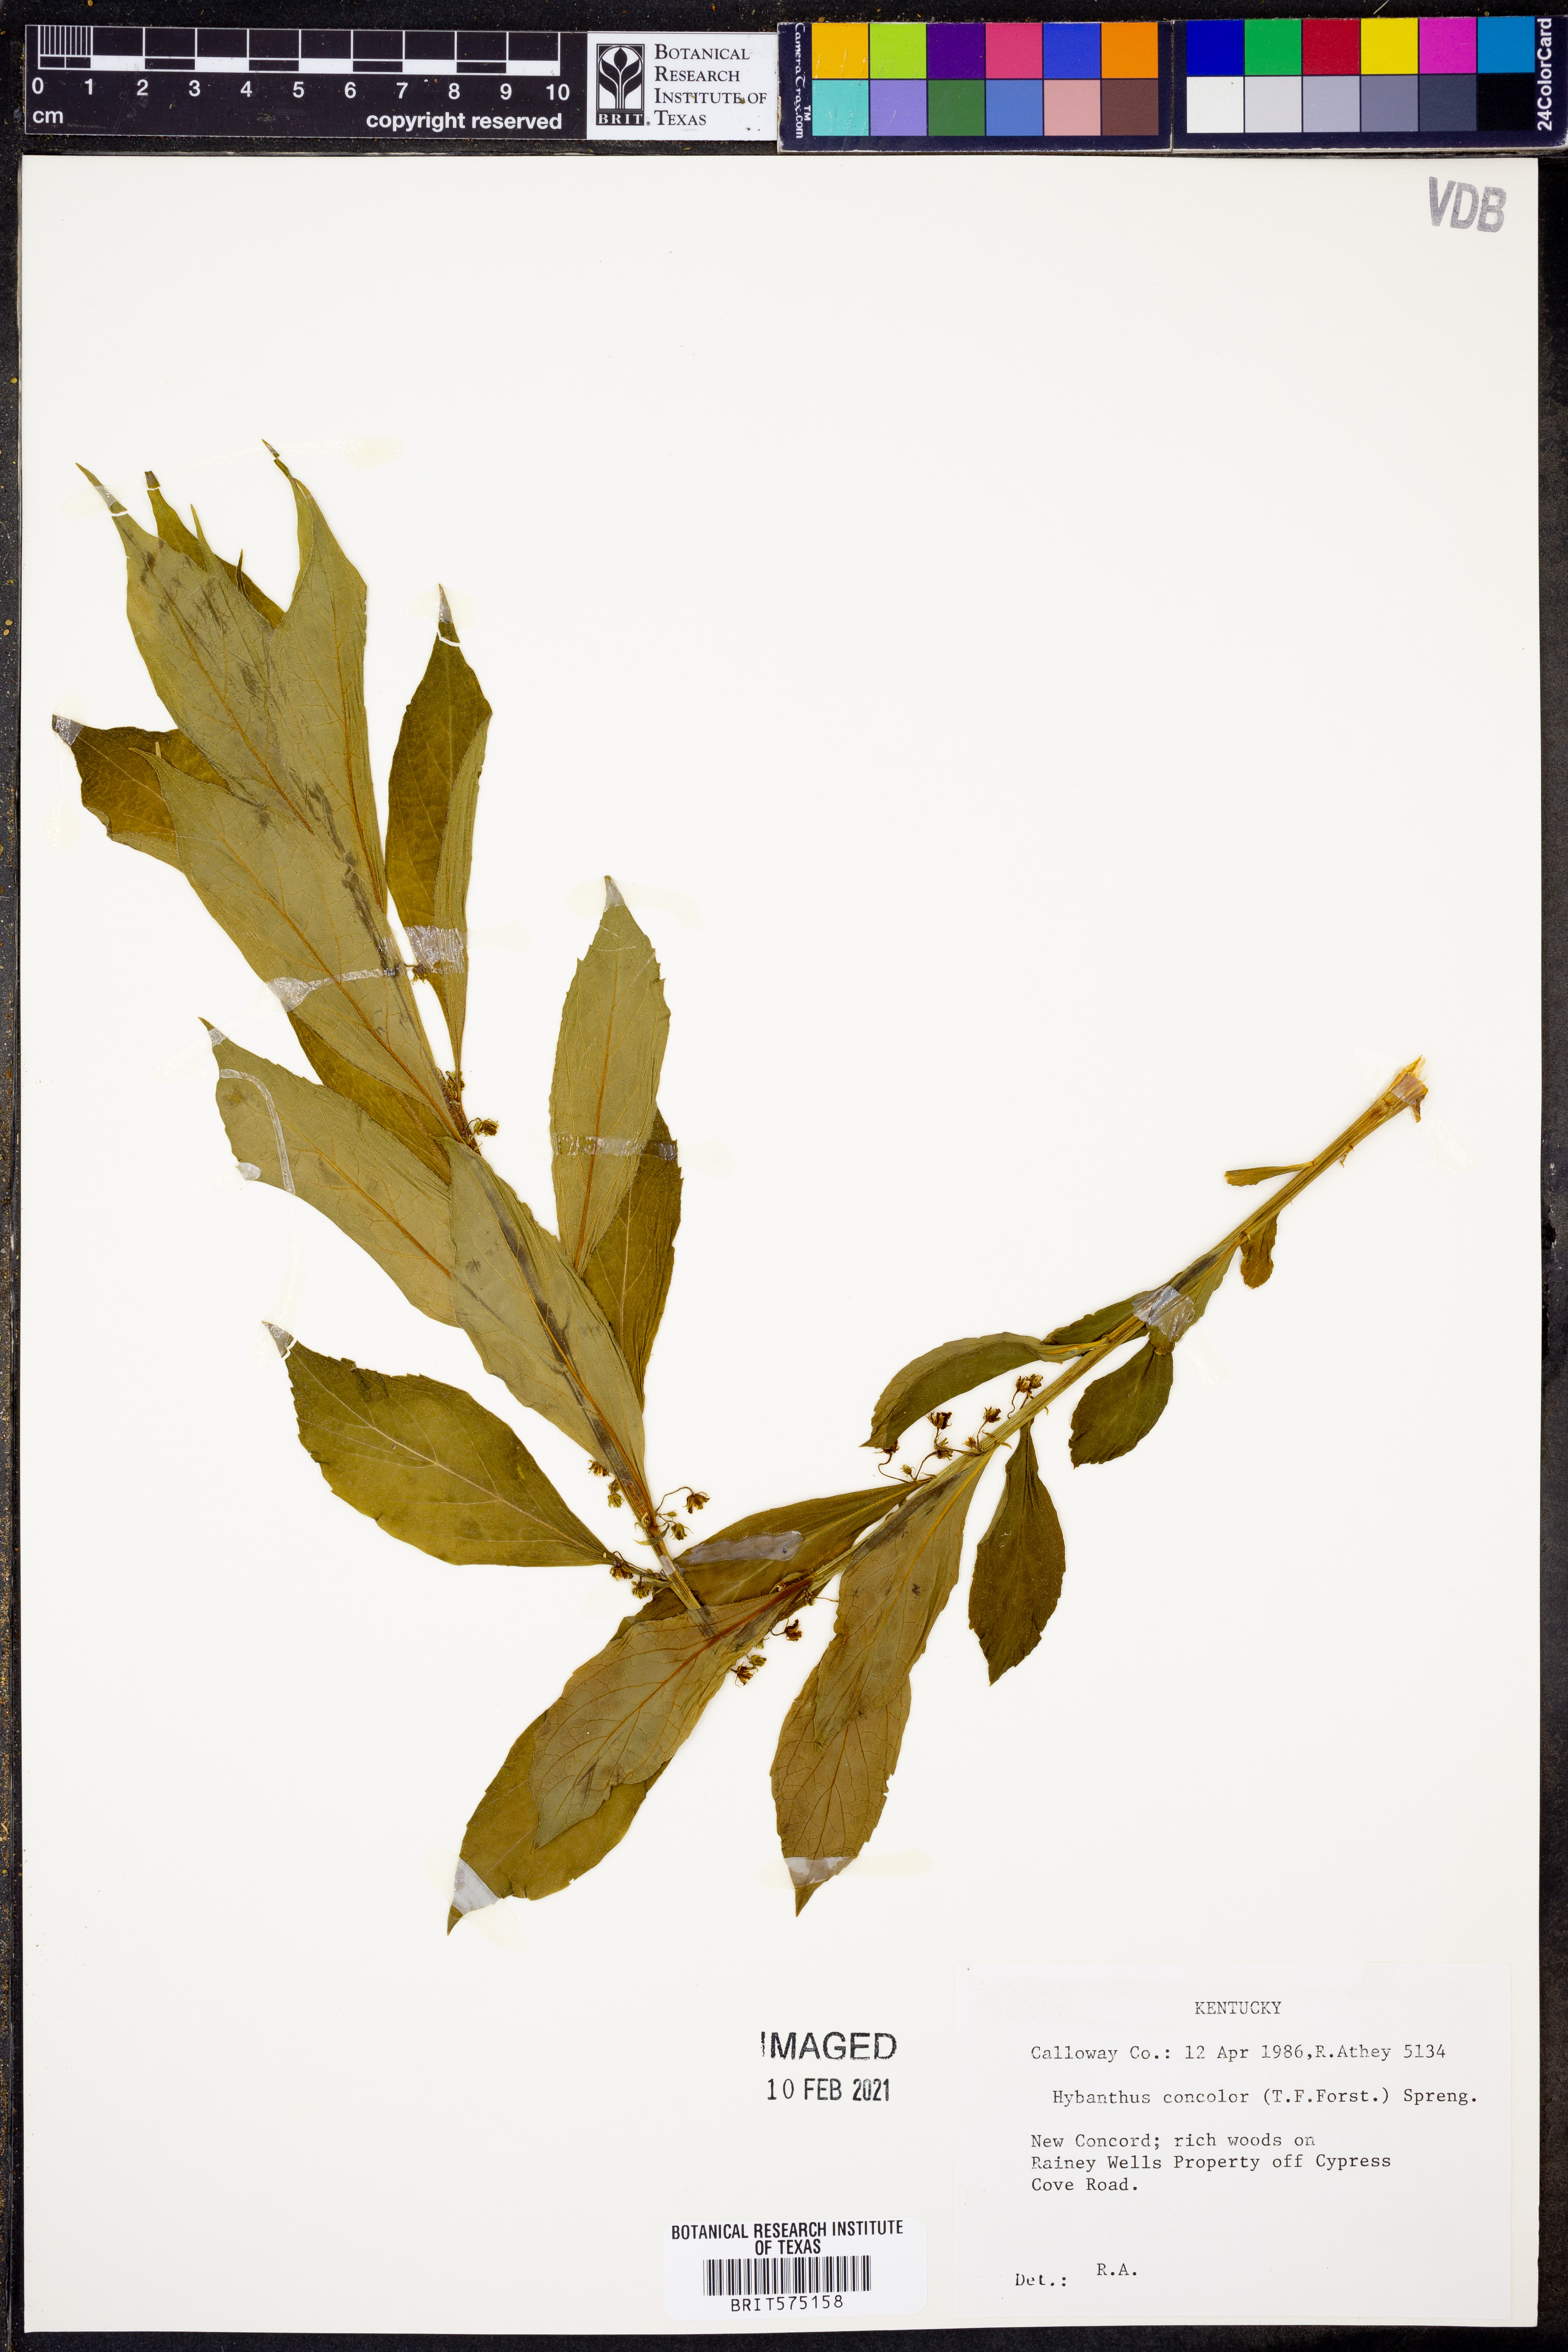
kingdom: Plantae
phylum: Tracheophyta
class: Magnoliopsida
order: Malpighiales
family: Violaceae
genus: Cubelium
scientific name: Cubelium concolor
